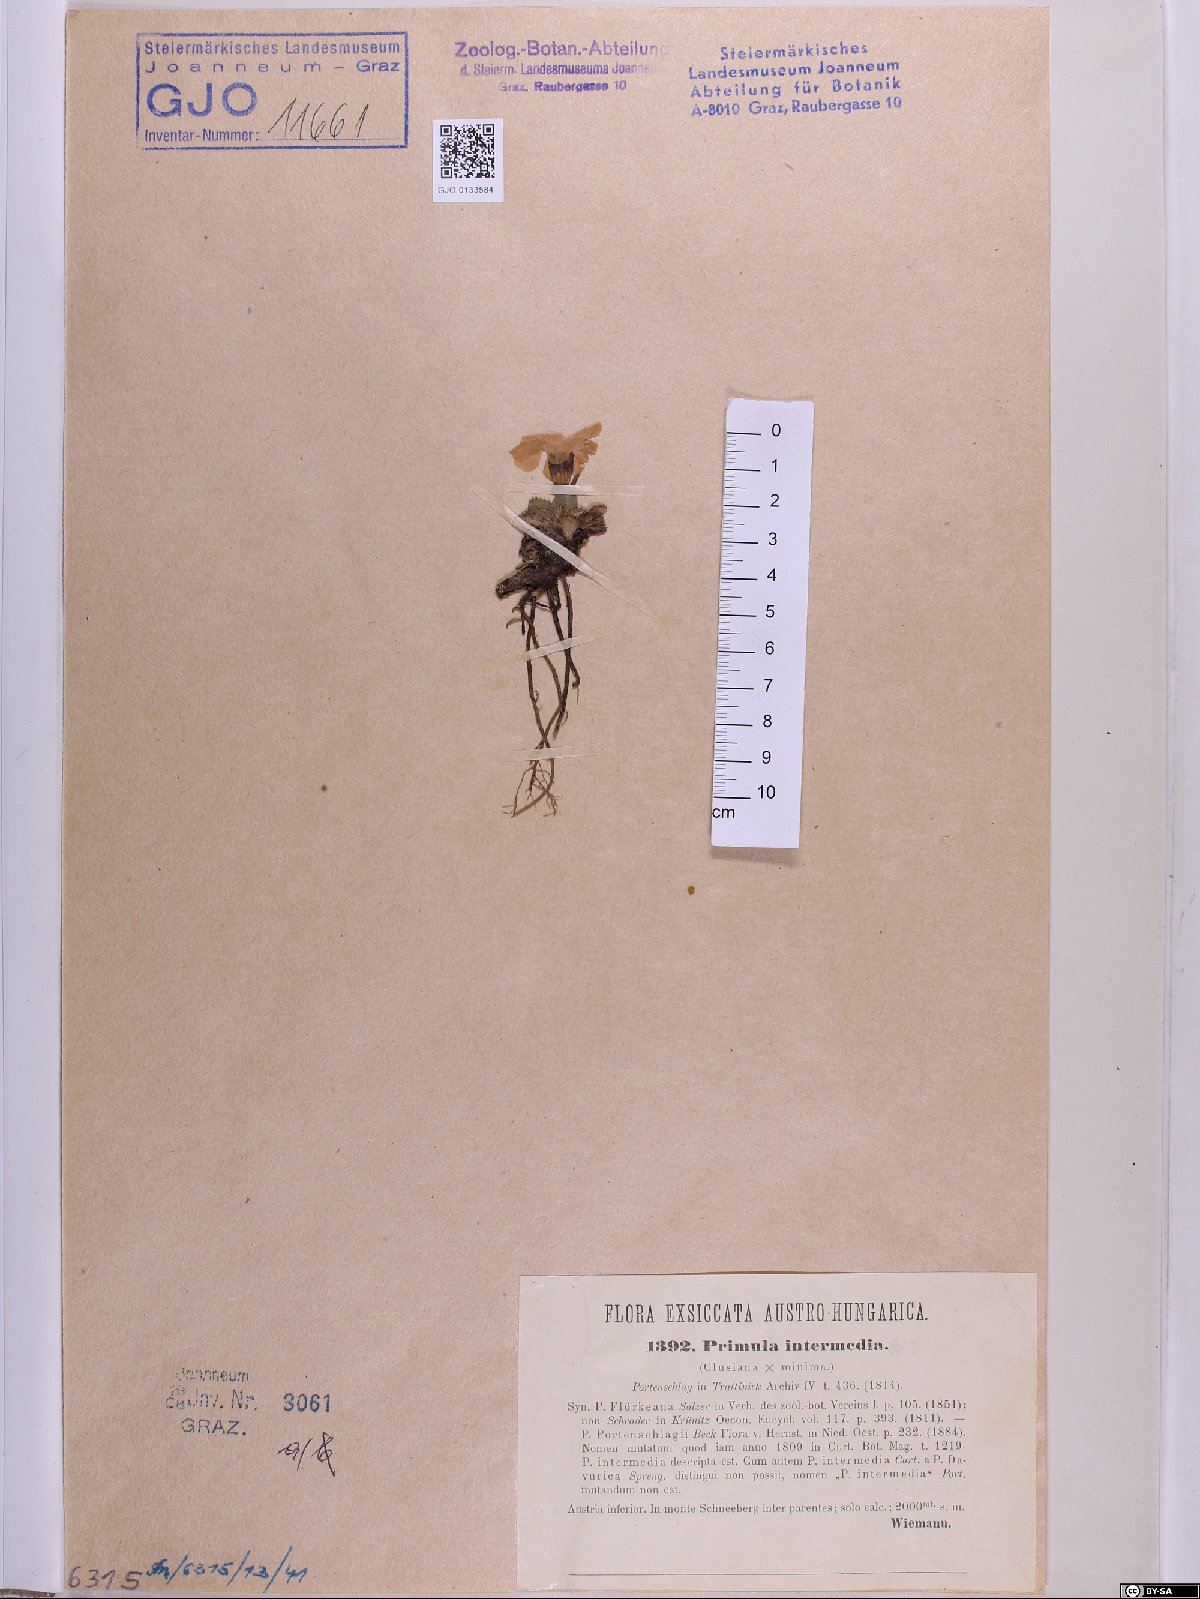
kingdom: Plantae
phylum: Tracheophyta
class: Magnoliopsida
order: Ericales
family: Primulaceae
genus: Primula
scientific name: Primula wettsteinii
